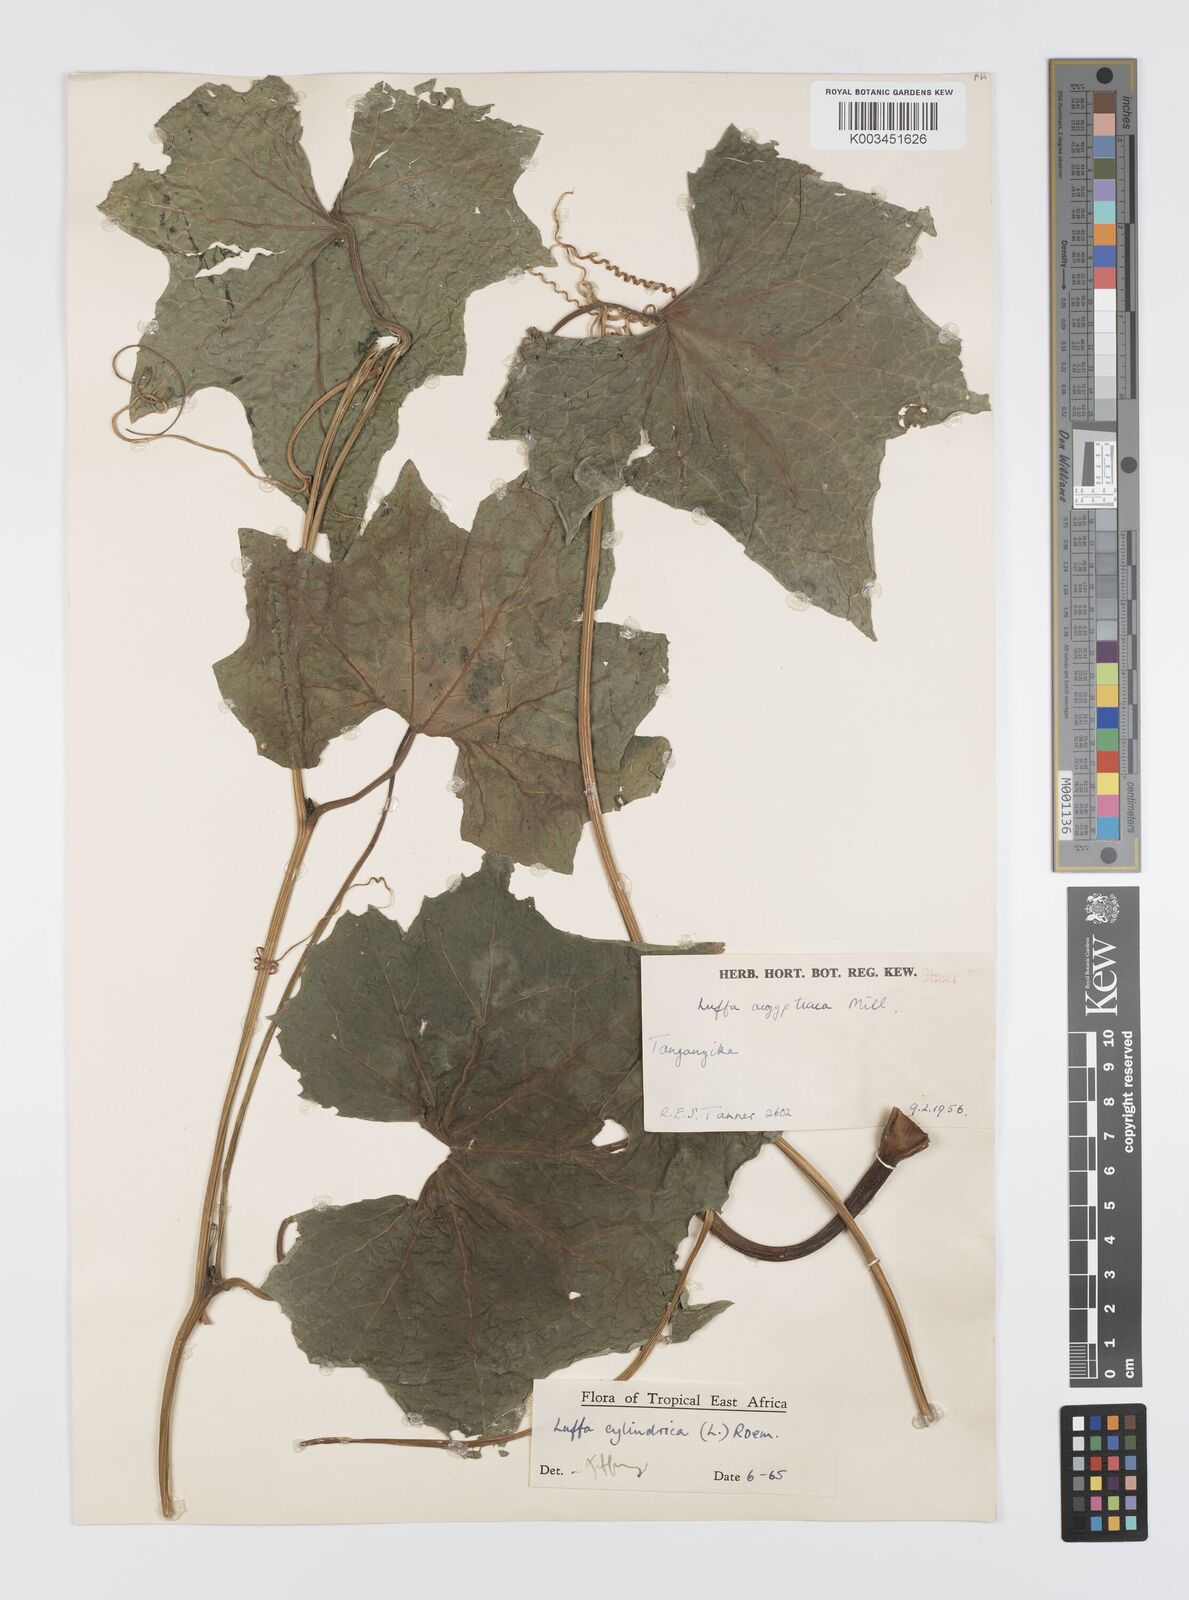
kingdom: Plantae
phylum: Tracheophyta
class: Magnoliopsida
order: Cucurbitales
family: Cucurbitaceae
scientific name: Cucurbitaceae
